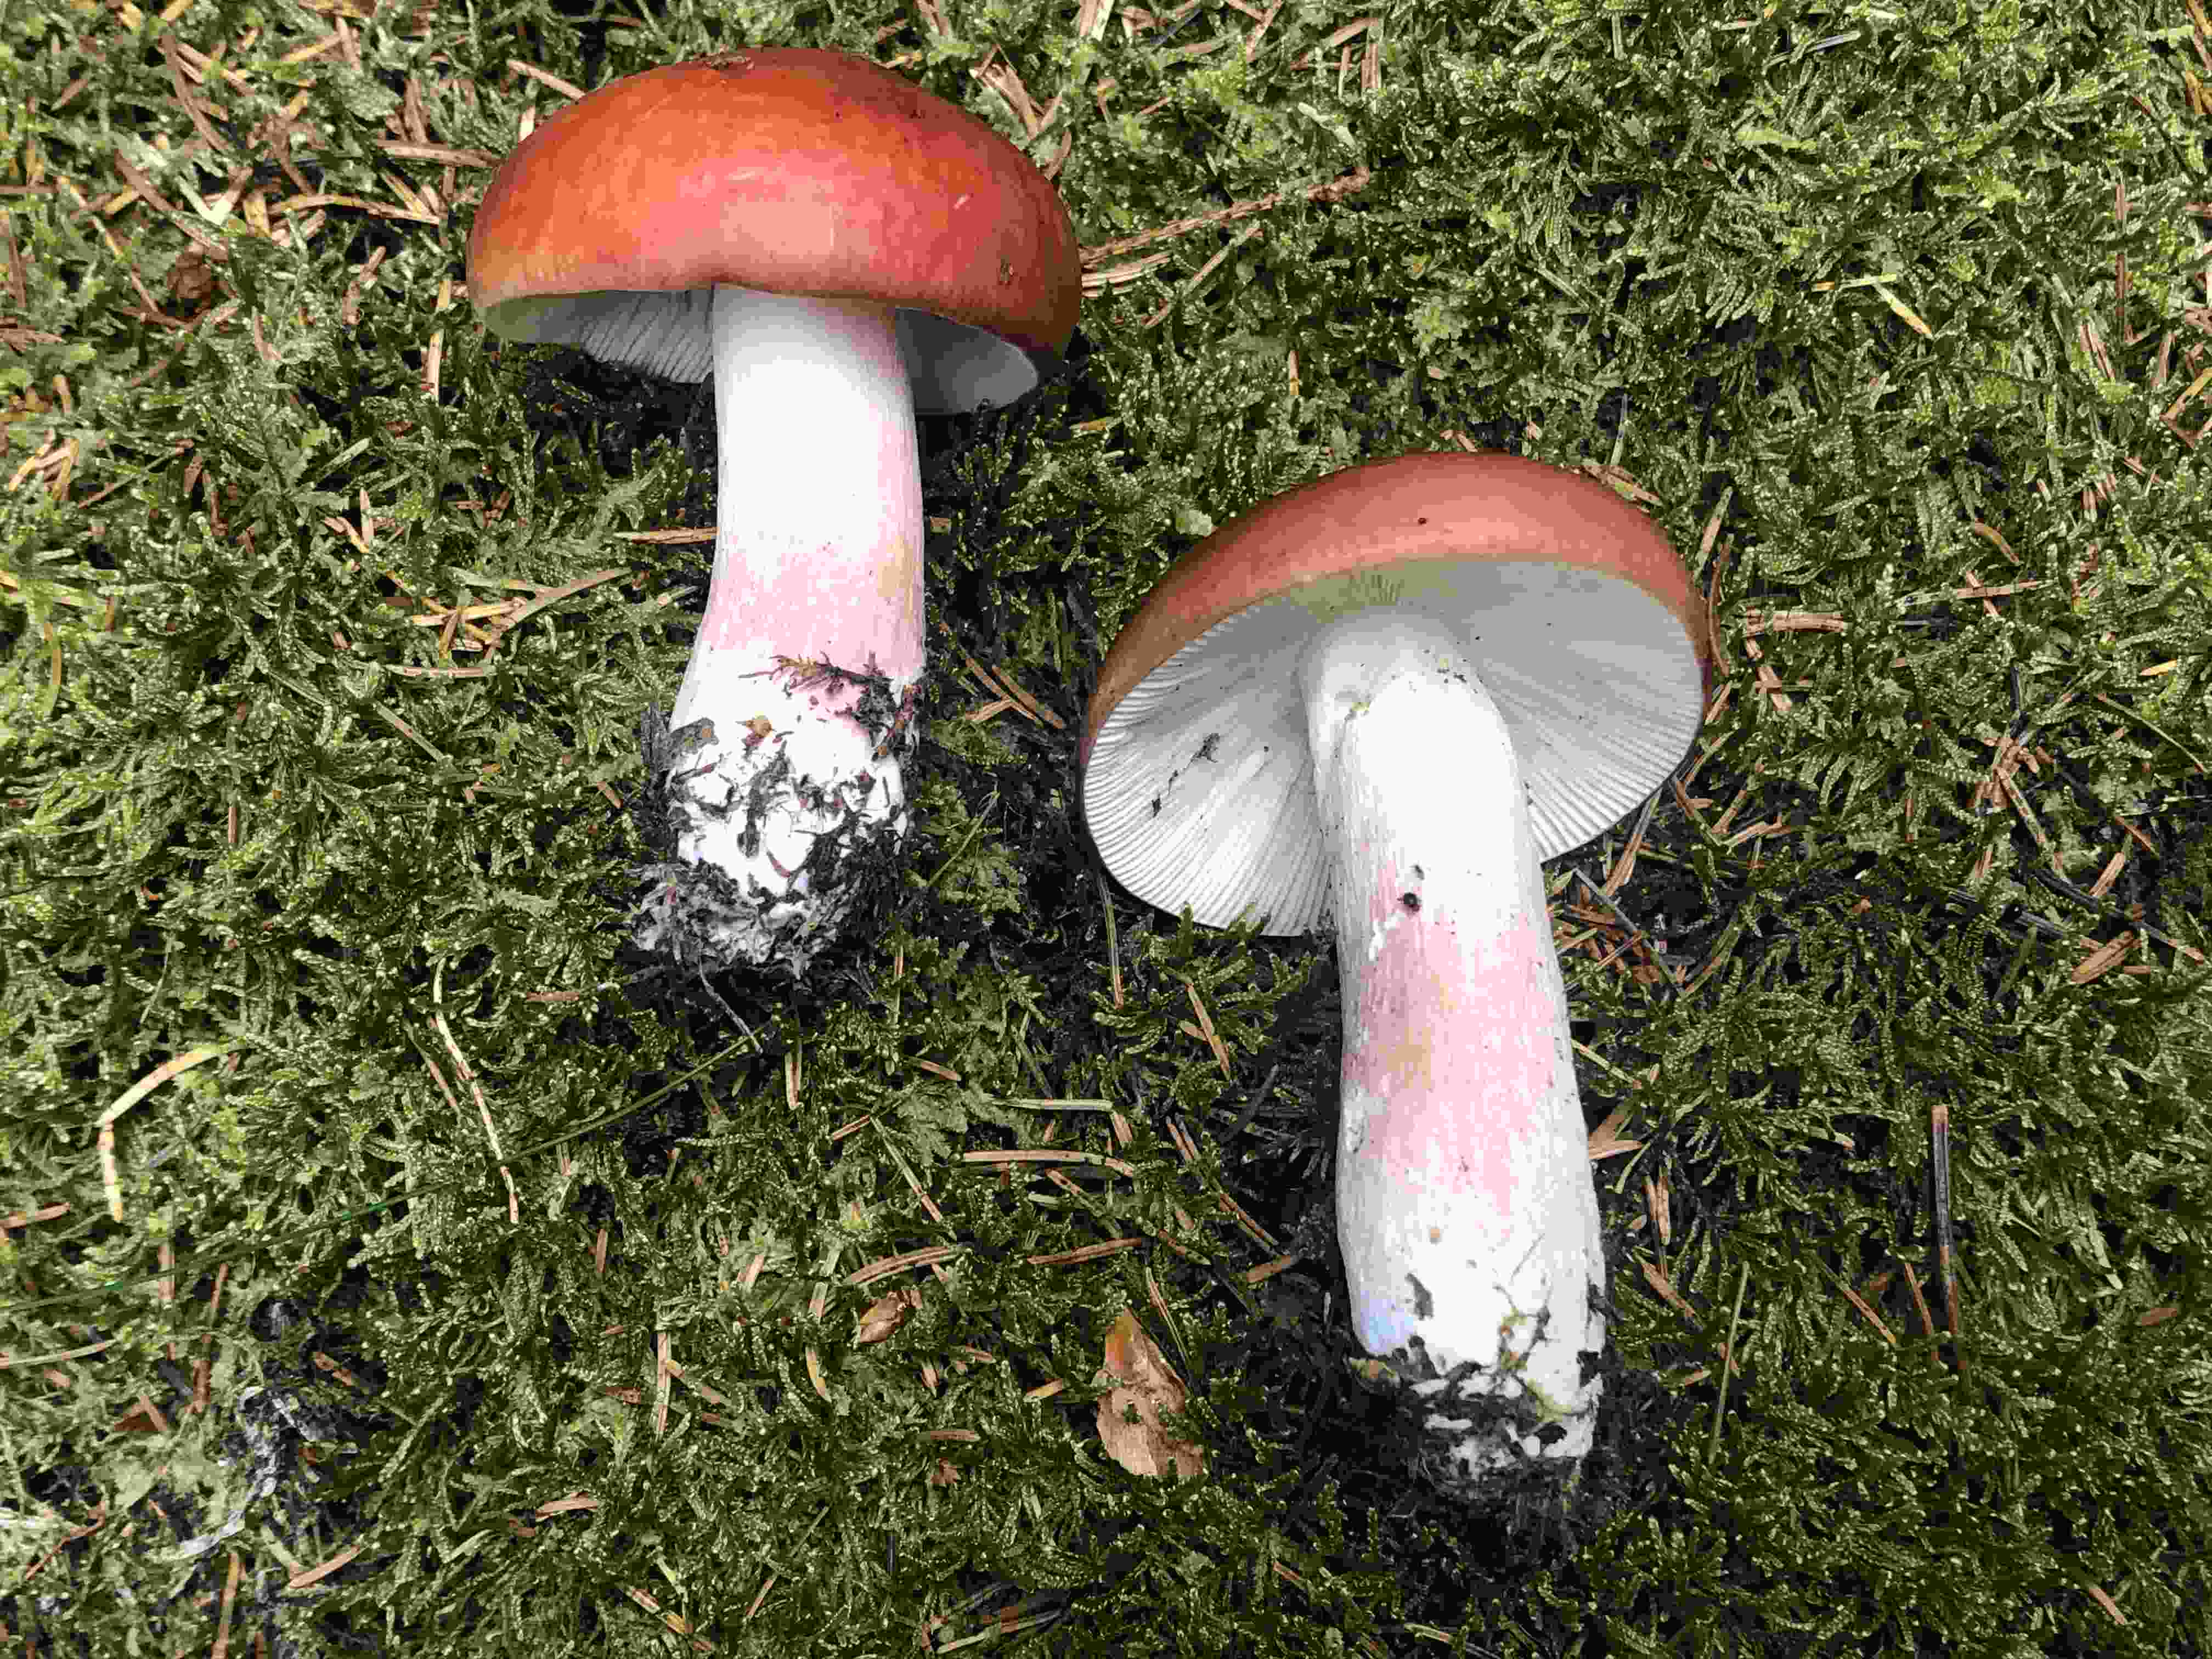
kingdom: Fungi
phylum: Basidiomycota
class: Agaricomycetes
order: Russulales
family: Russulaceae
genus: Russula
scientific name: Russula paludosa
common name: prægtig skørhat
